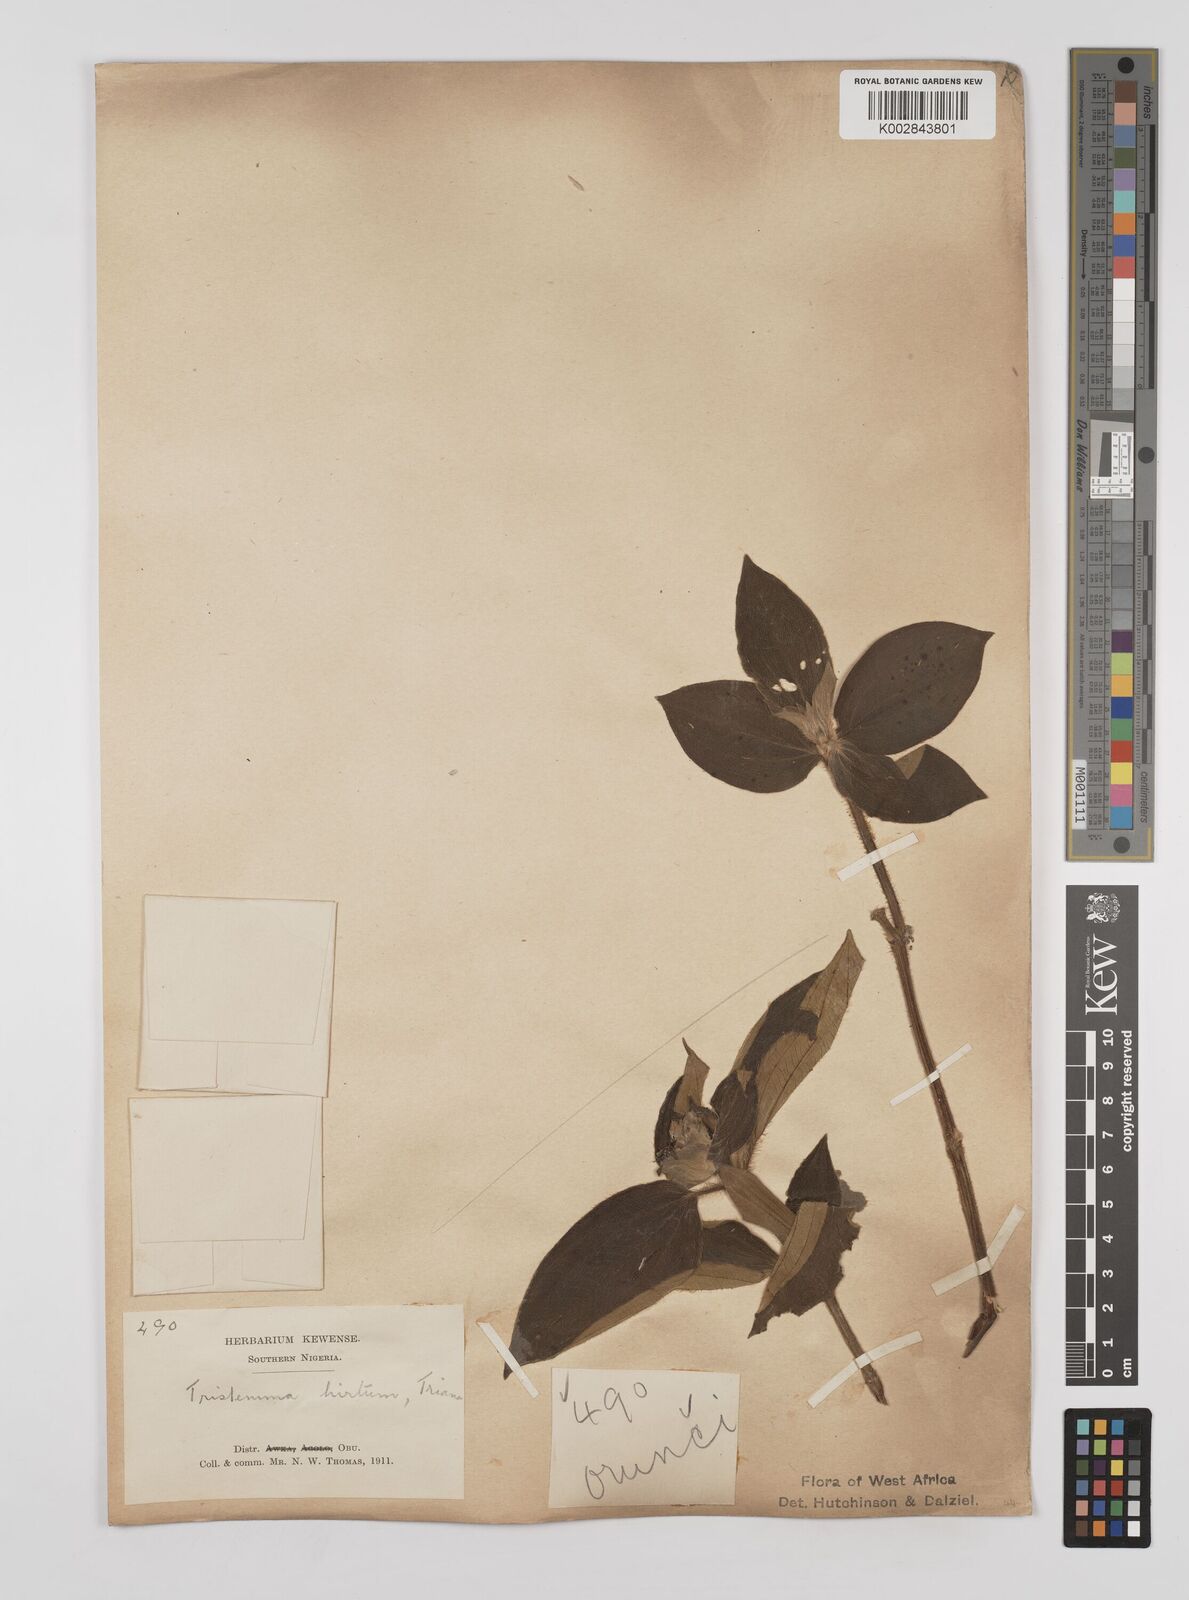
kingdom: Plantae
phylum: Tracheophyta
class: Magnoliopsida
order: Myrtales
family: Melastomataceae
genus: Tristemma
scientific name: Tristemma hirtum
